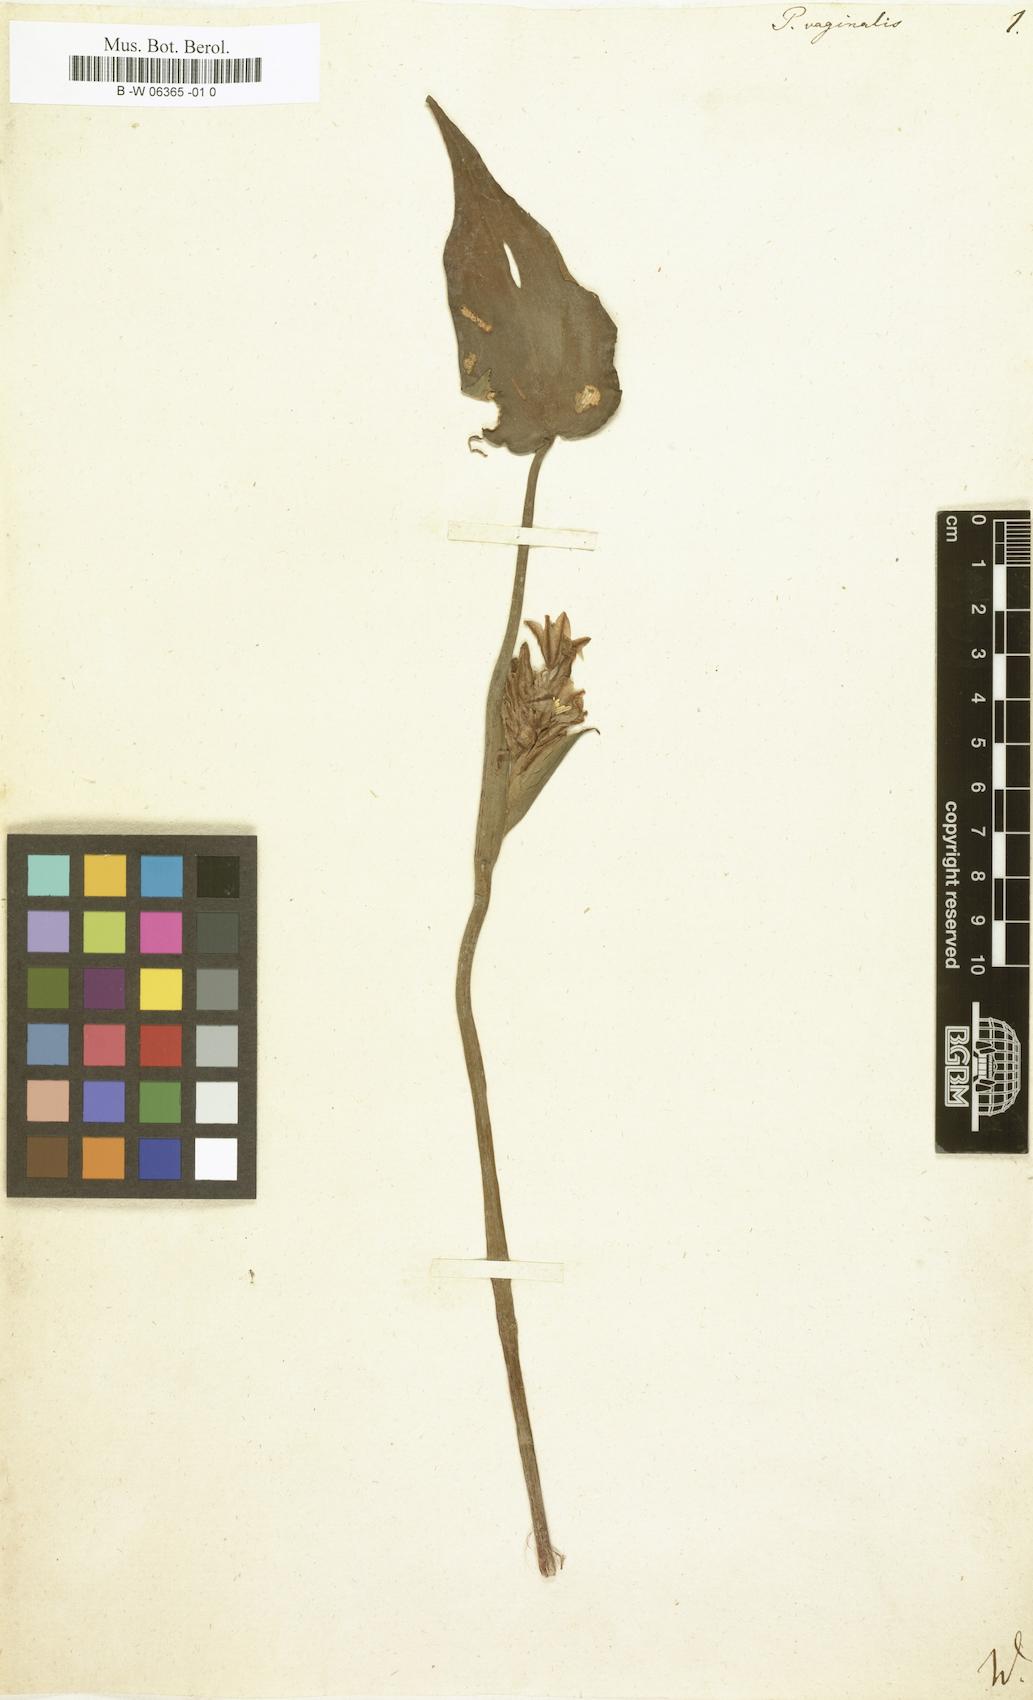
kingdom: Plantae
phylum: Tracheophyta
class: Liliopsida
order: Commelinales
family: Pontederiaceae
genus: Pontederia
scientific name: Pontederia vaginalis
